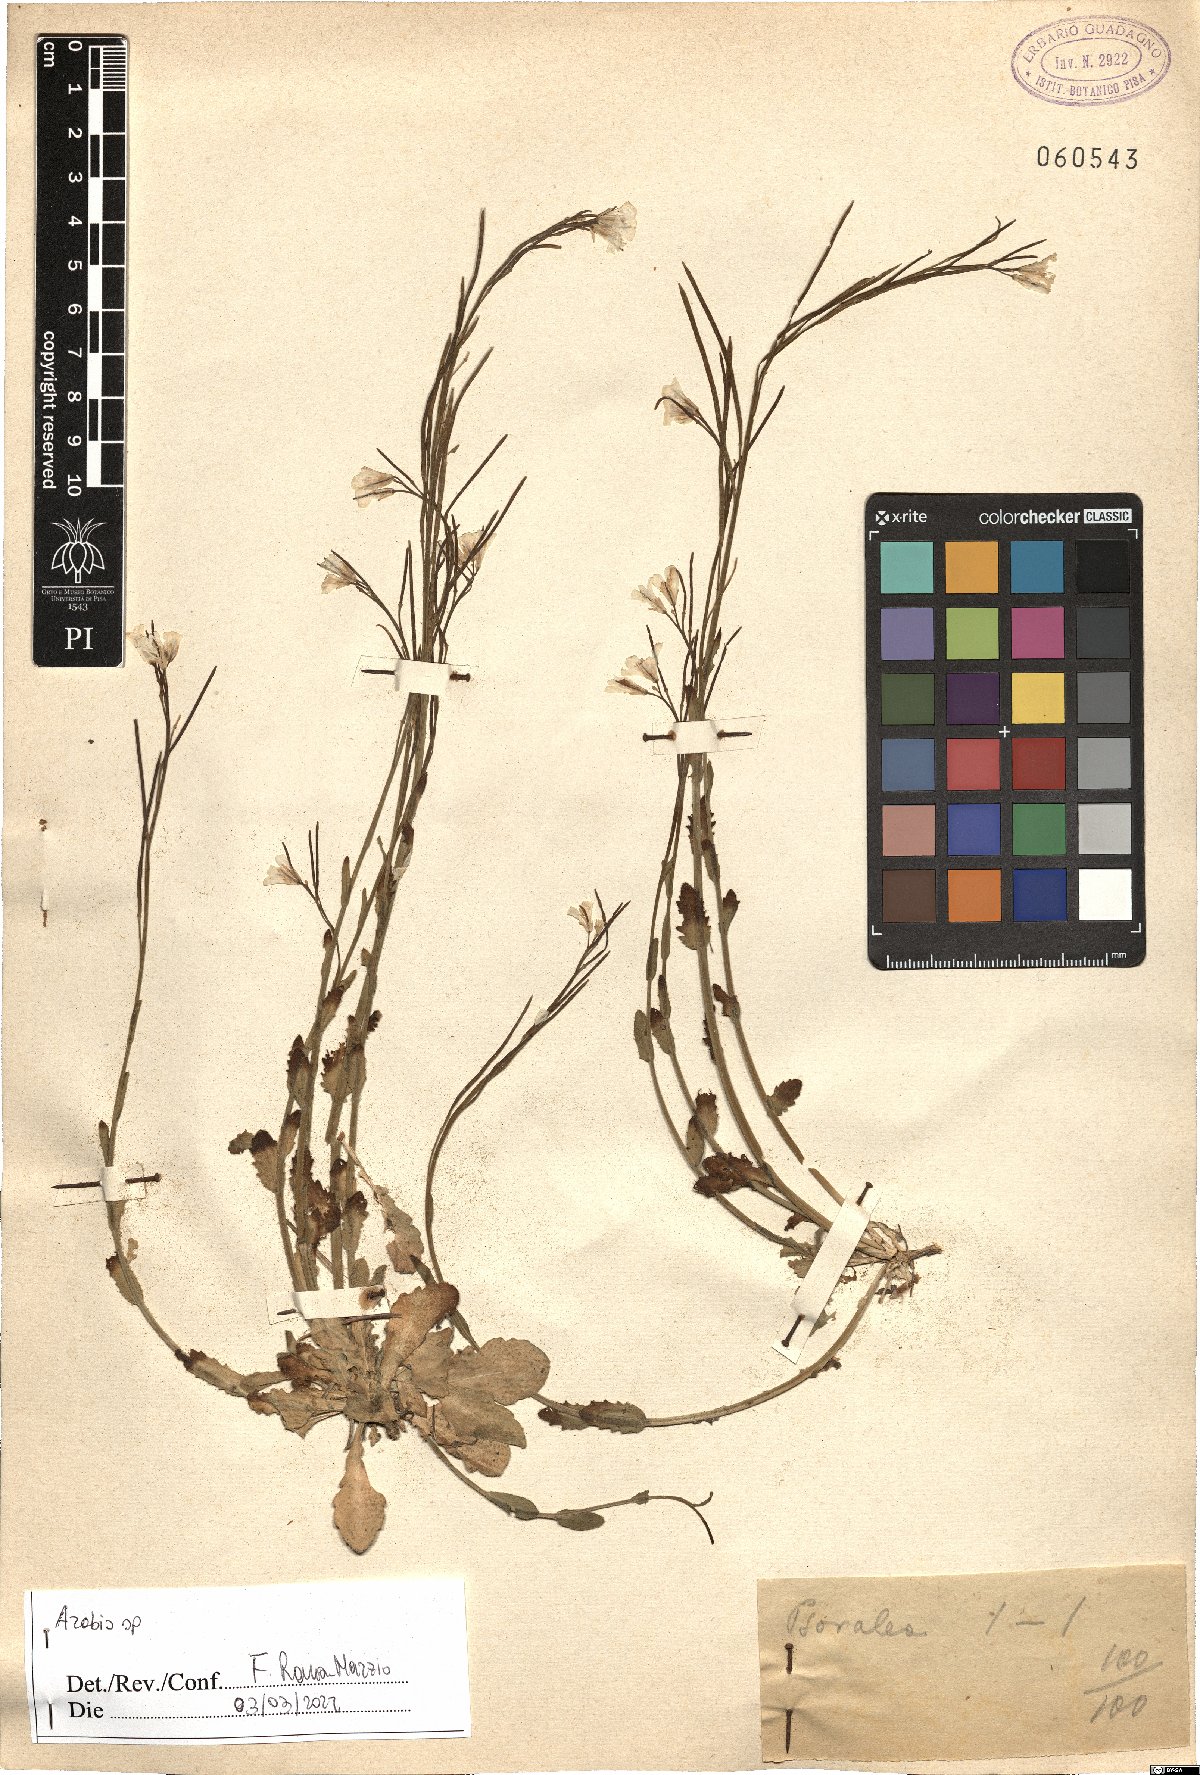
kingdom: Plantae
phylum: Tracheophyta
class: Magnoliopsida
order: Brassicales
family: Brassicaceae
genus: Arabis
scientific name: Arabis
